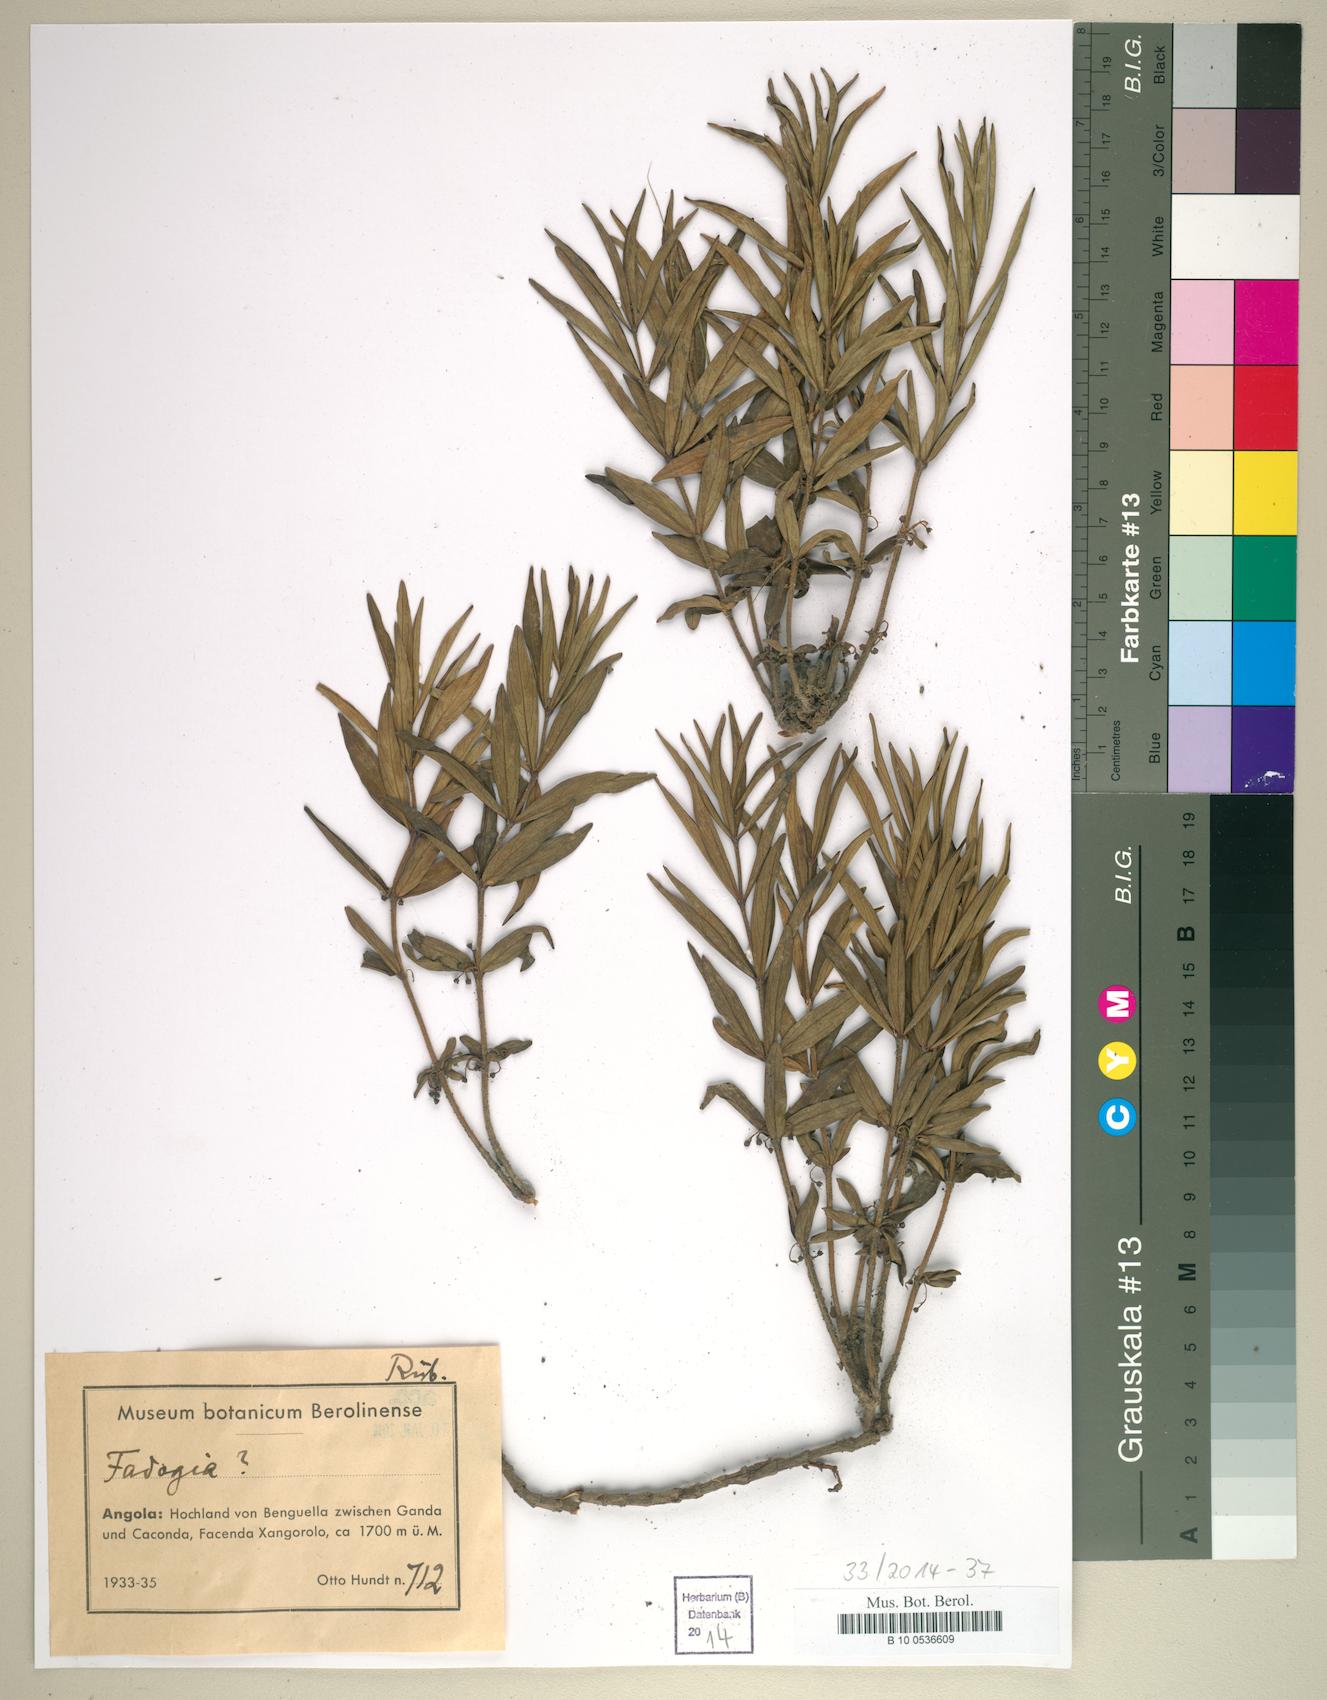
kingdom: Plantae
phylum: Tracheophyta
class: Magnoliopsida
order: Gentianales
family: Rubiaceae
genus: Fadogia
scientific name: Fadogia
